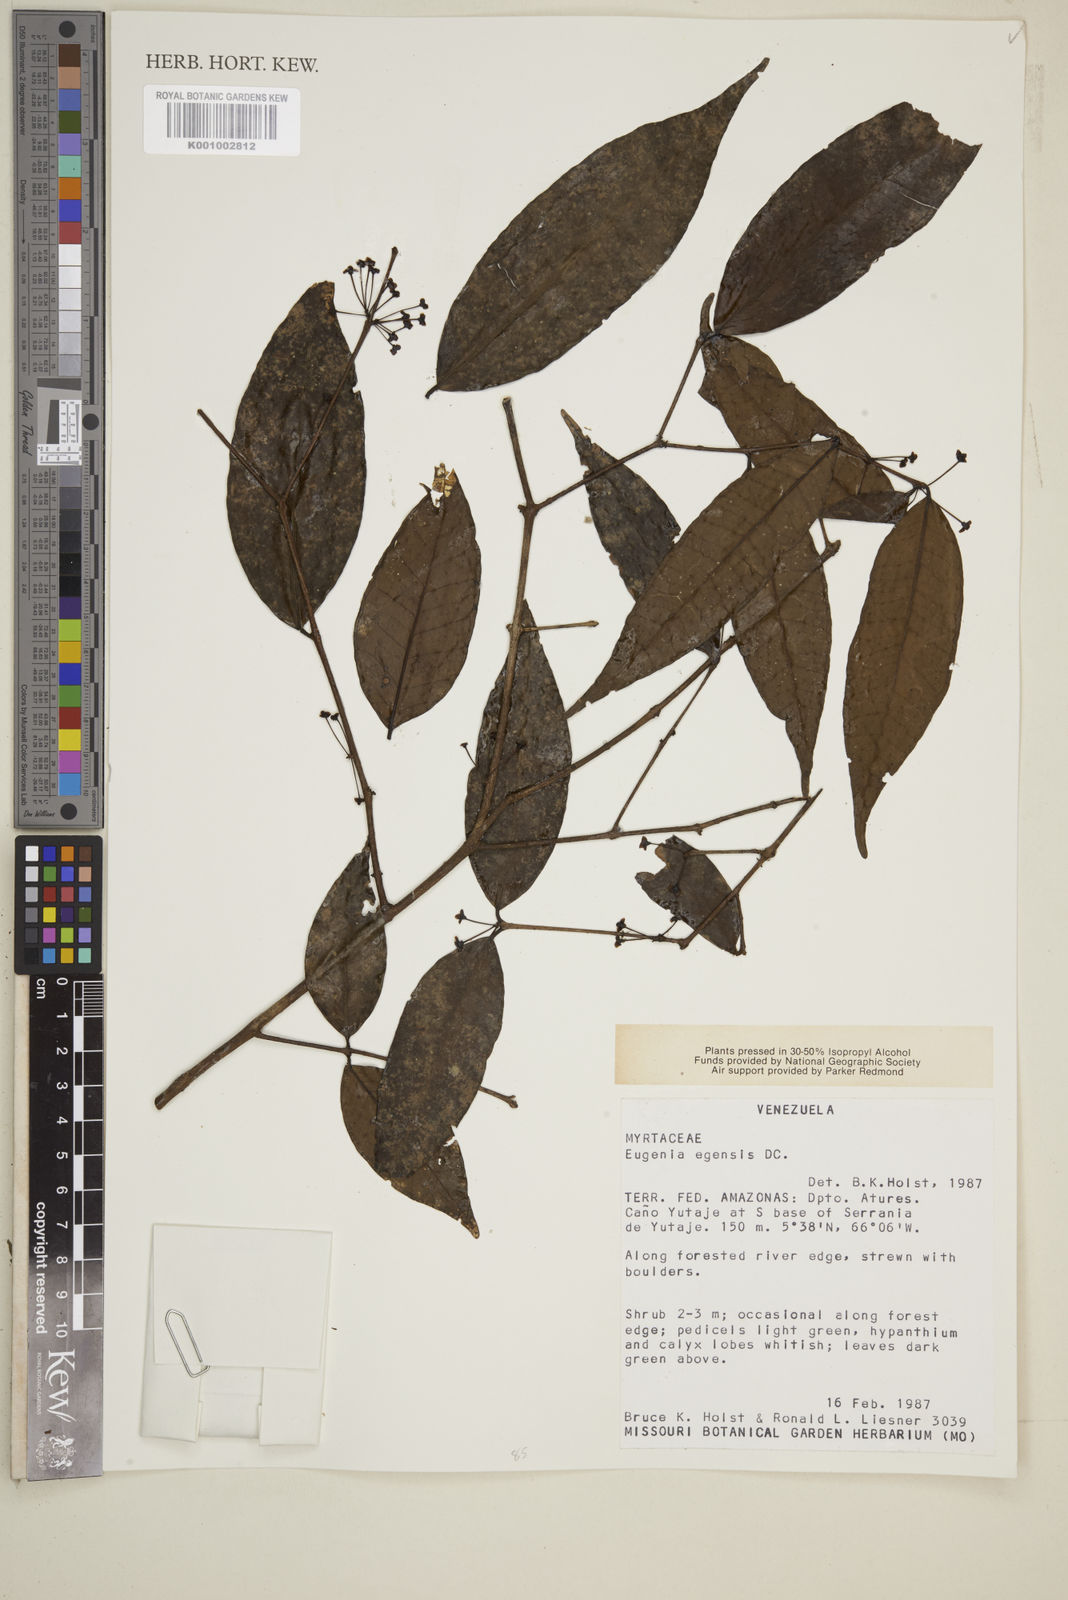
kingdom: Plantae
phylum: Tracheophyta
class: Magnoliopsida
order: Myrtales
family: Myrtaceae
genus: Eugenia
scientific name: Eugenia egensis
